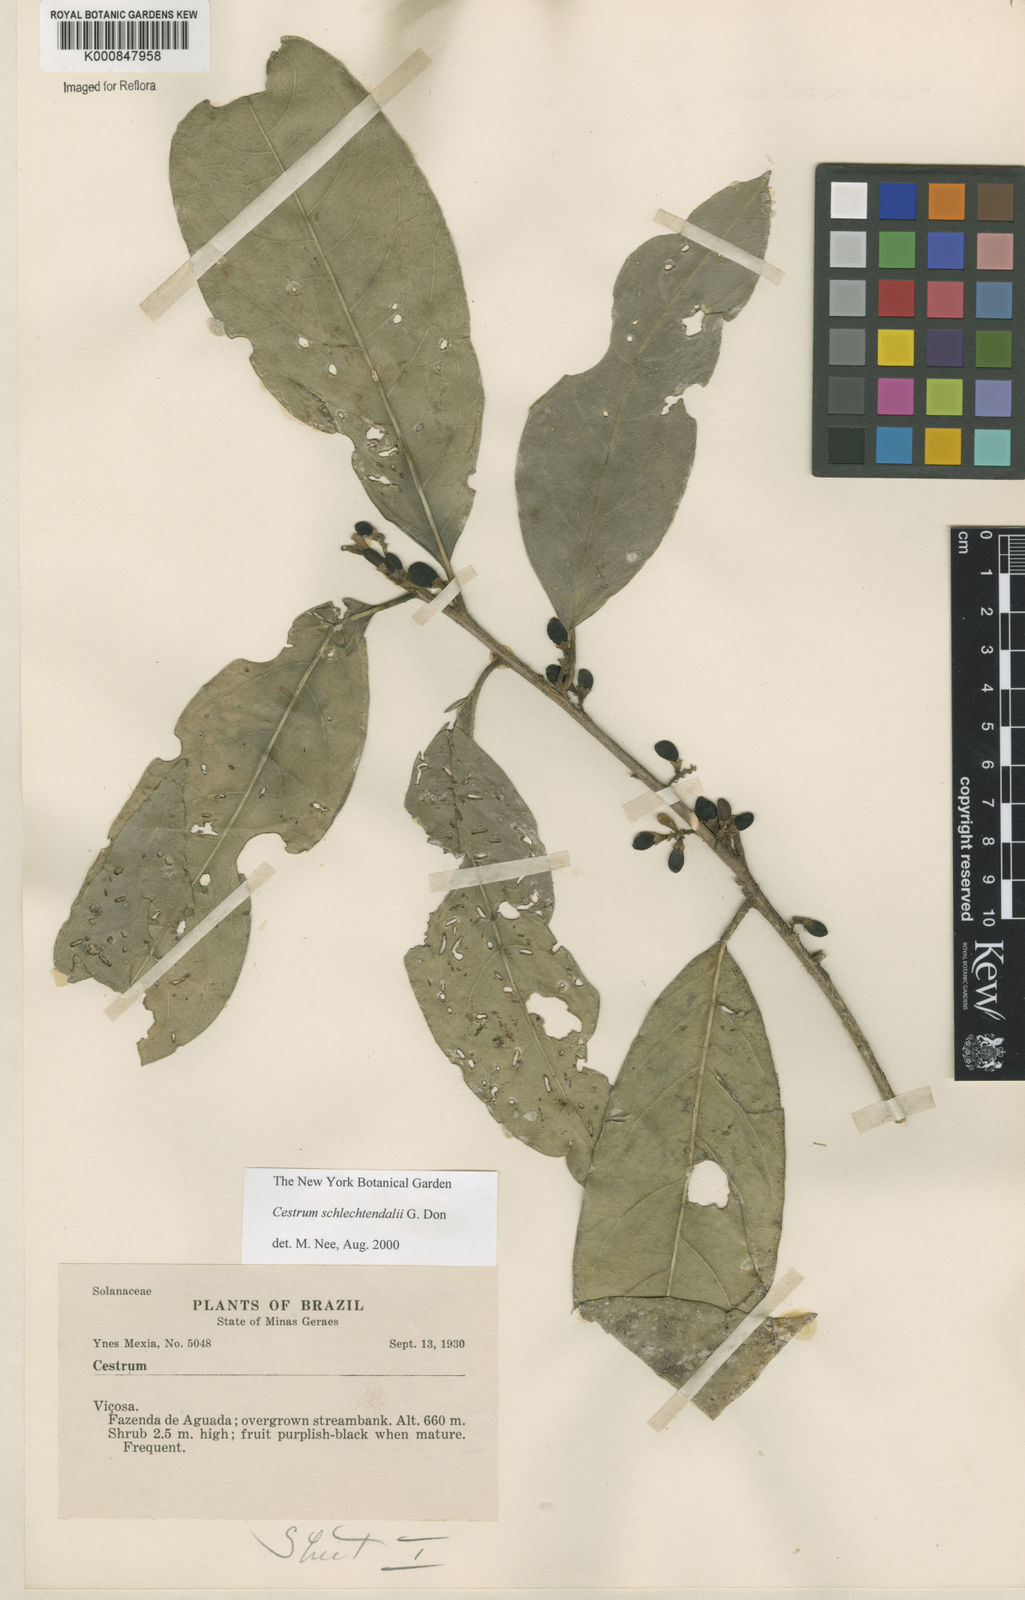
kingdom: Plantae
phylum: Tracheophyta
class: Magnoliopsida
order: Solanales
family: Solanaceae
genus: Cestrum
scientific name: Cestrum schlechtendalii
